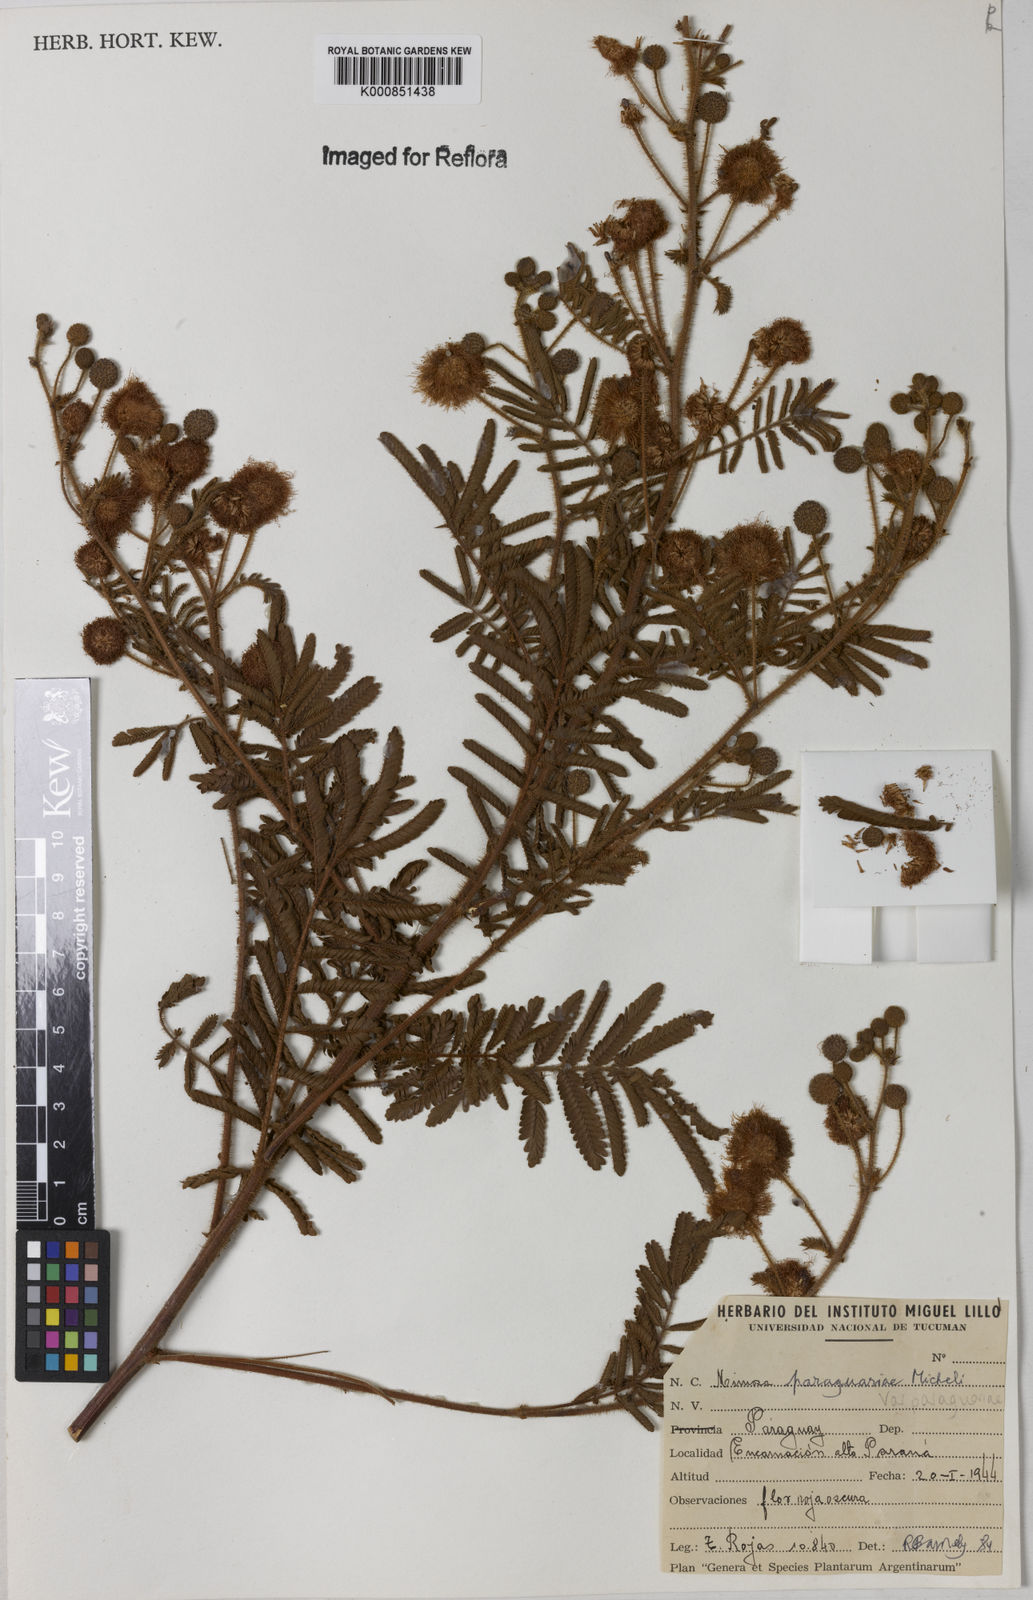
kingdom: Plantae
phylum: Tracheophyta
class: Magnoliopsida
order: Fabales
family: Fabaceae
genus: Mimosa
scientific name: Mimosa paraguariae
